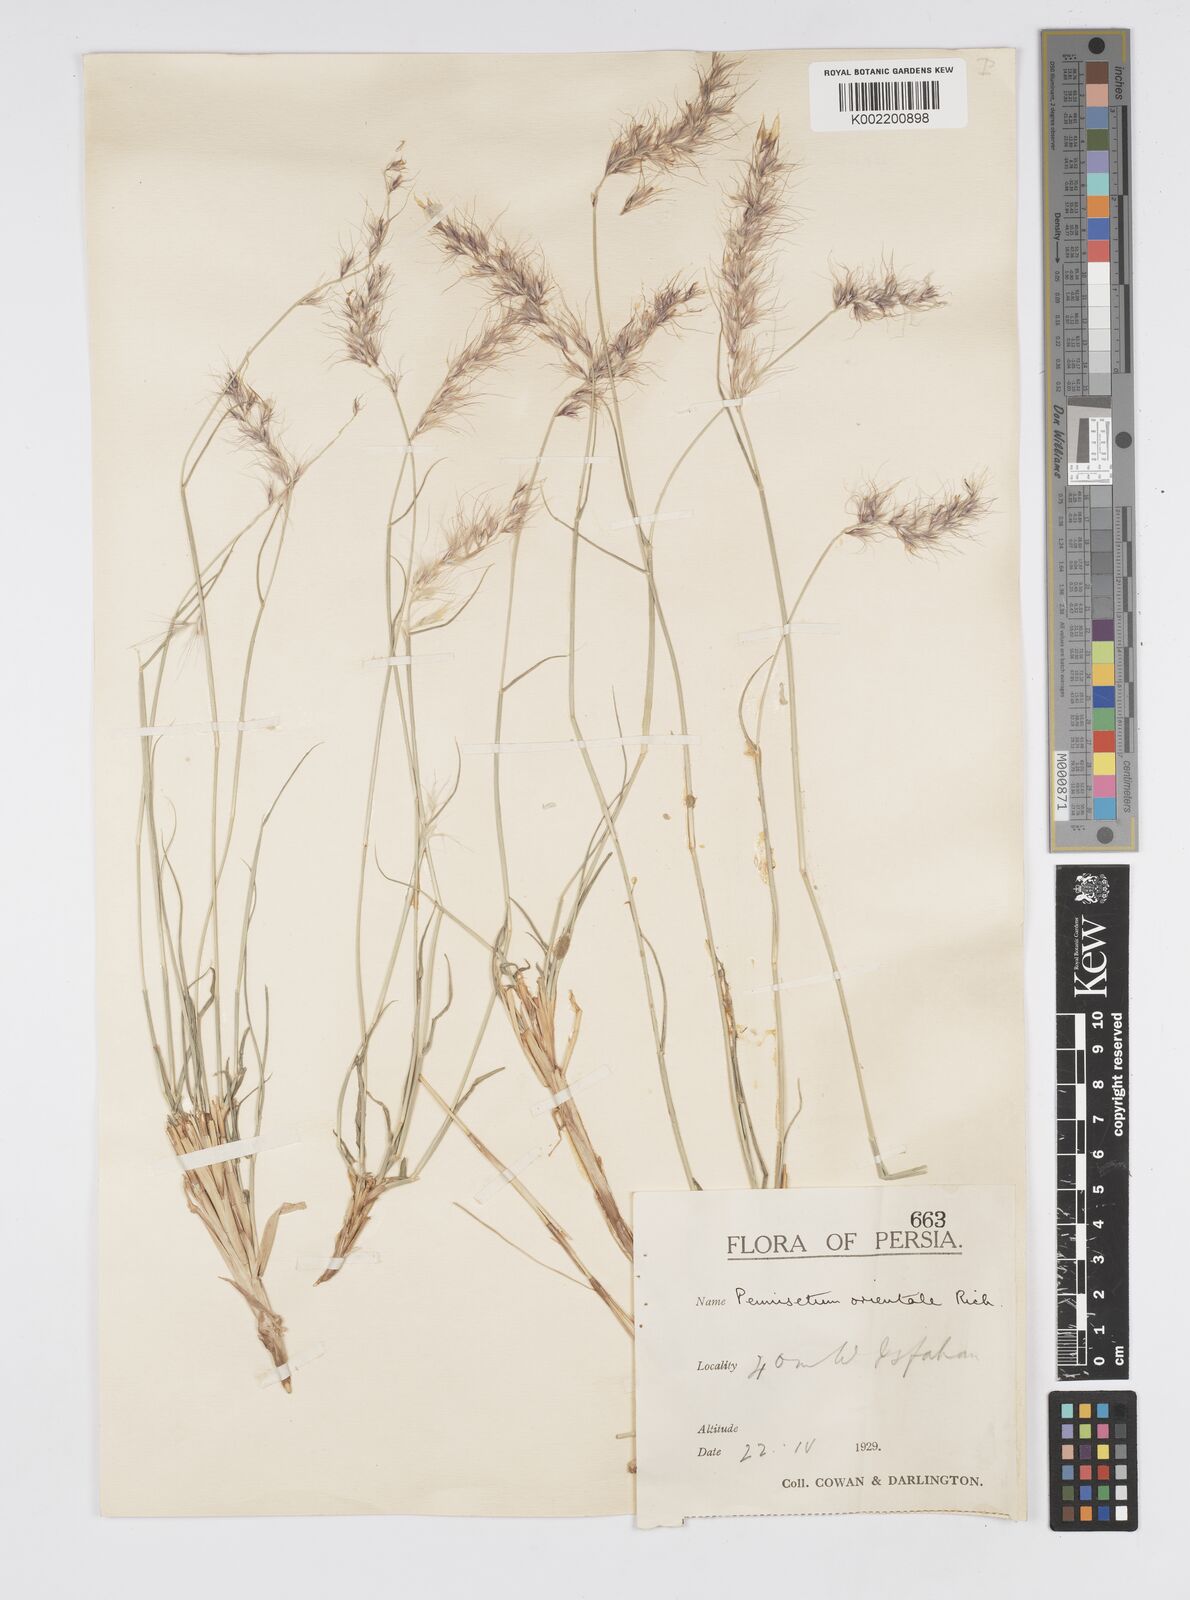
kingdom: Plantae
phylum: Tracheophyta
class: Liliopsida
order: Poales
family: Poaceae
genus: Cenchrus
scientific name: Cenchrus orientalis
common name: Oriental fountain grass
